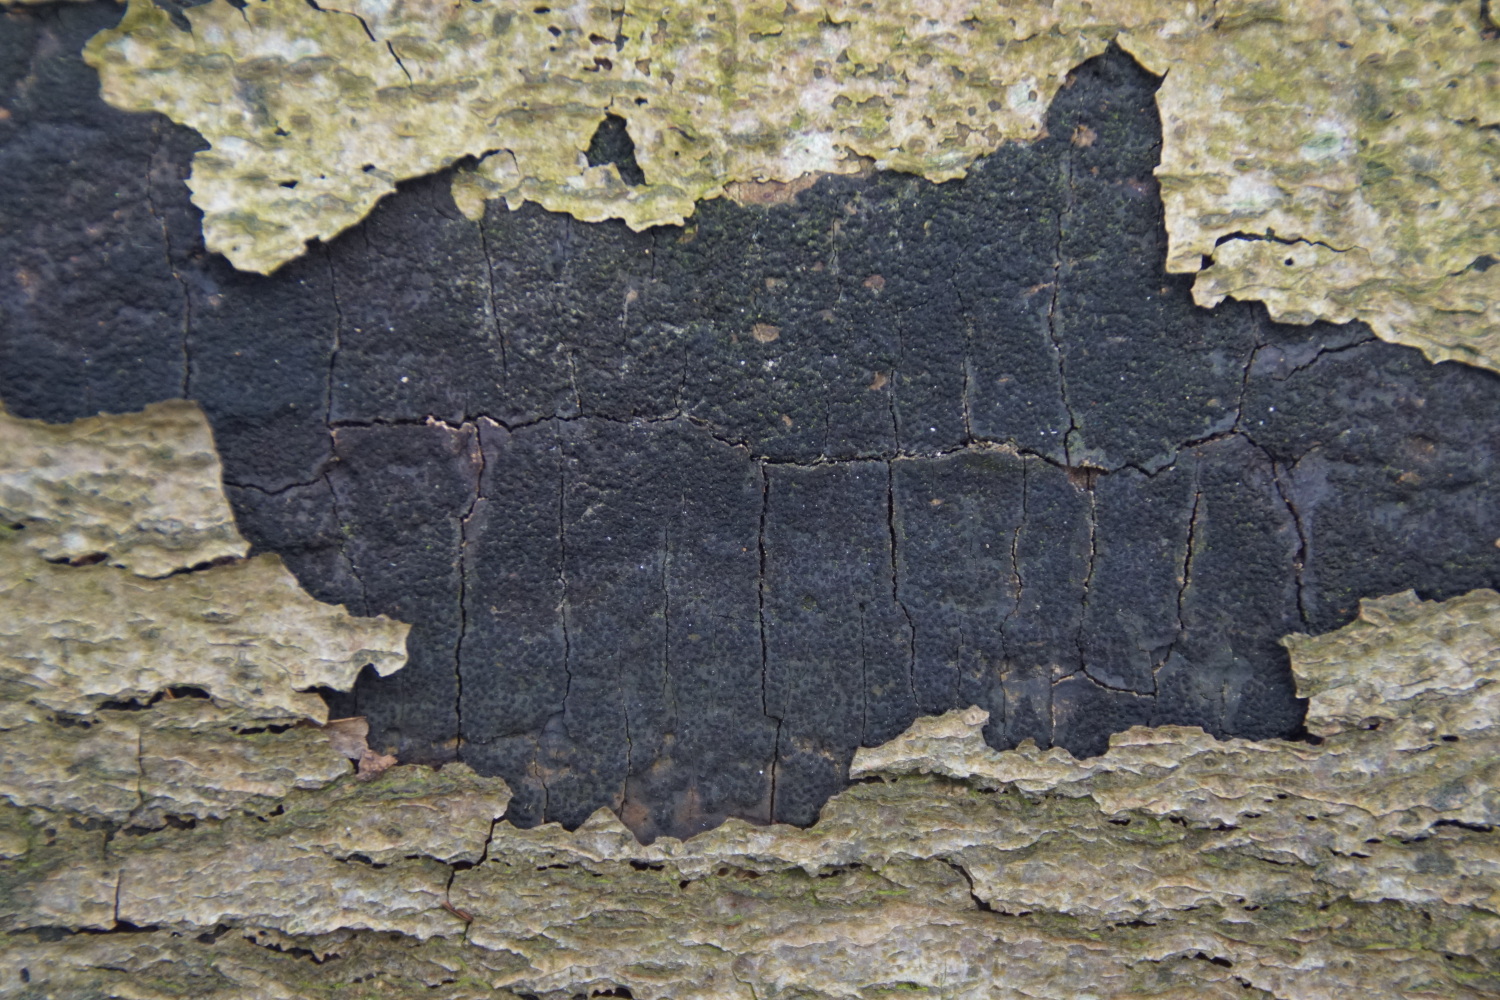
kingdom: Fungi
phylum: Ascomycota
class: Sordariomycetes
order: Xylariales
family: Diatrypaceae
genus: Eutypa
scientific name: Eutypa spinosa
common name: grov kulskorpe
